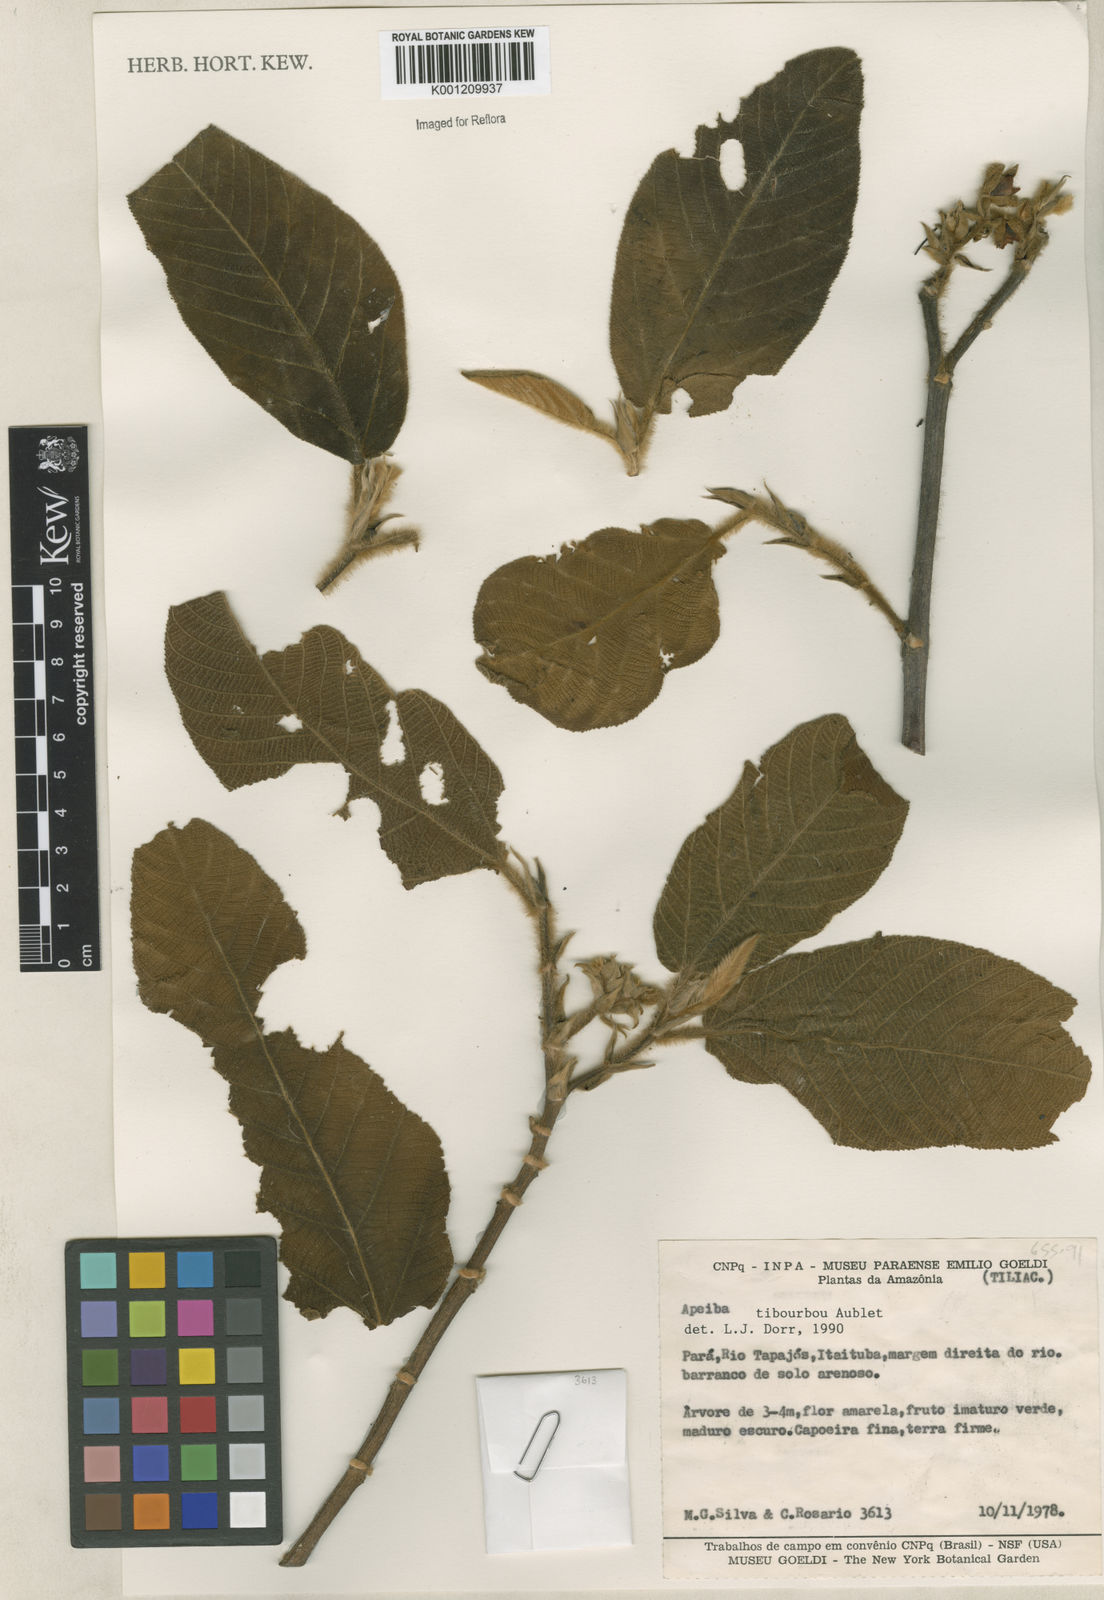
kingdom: Plantae
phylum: Tracheophyta
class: Magnoliopsida
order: Malvales
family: Malvaceae
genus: Apeiba
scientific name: Apeiba tibourbou
